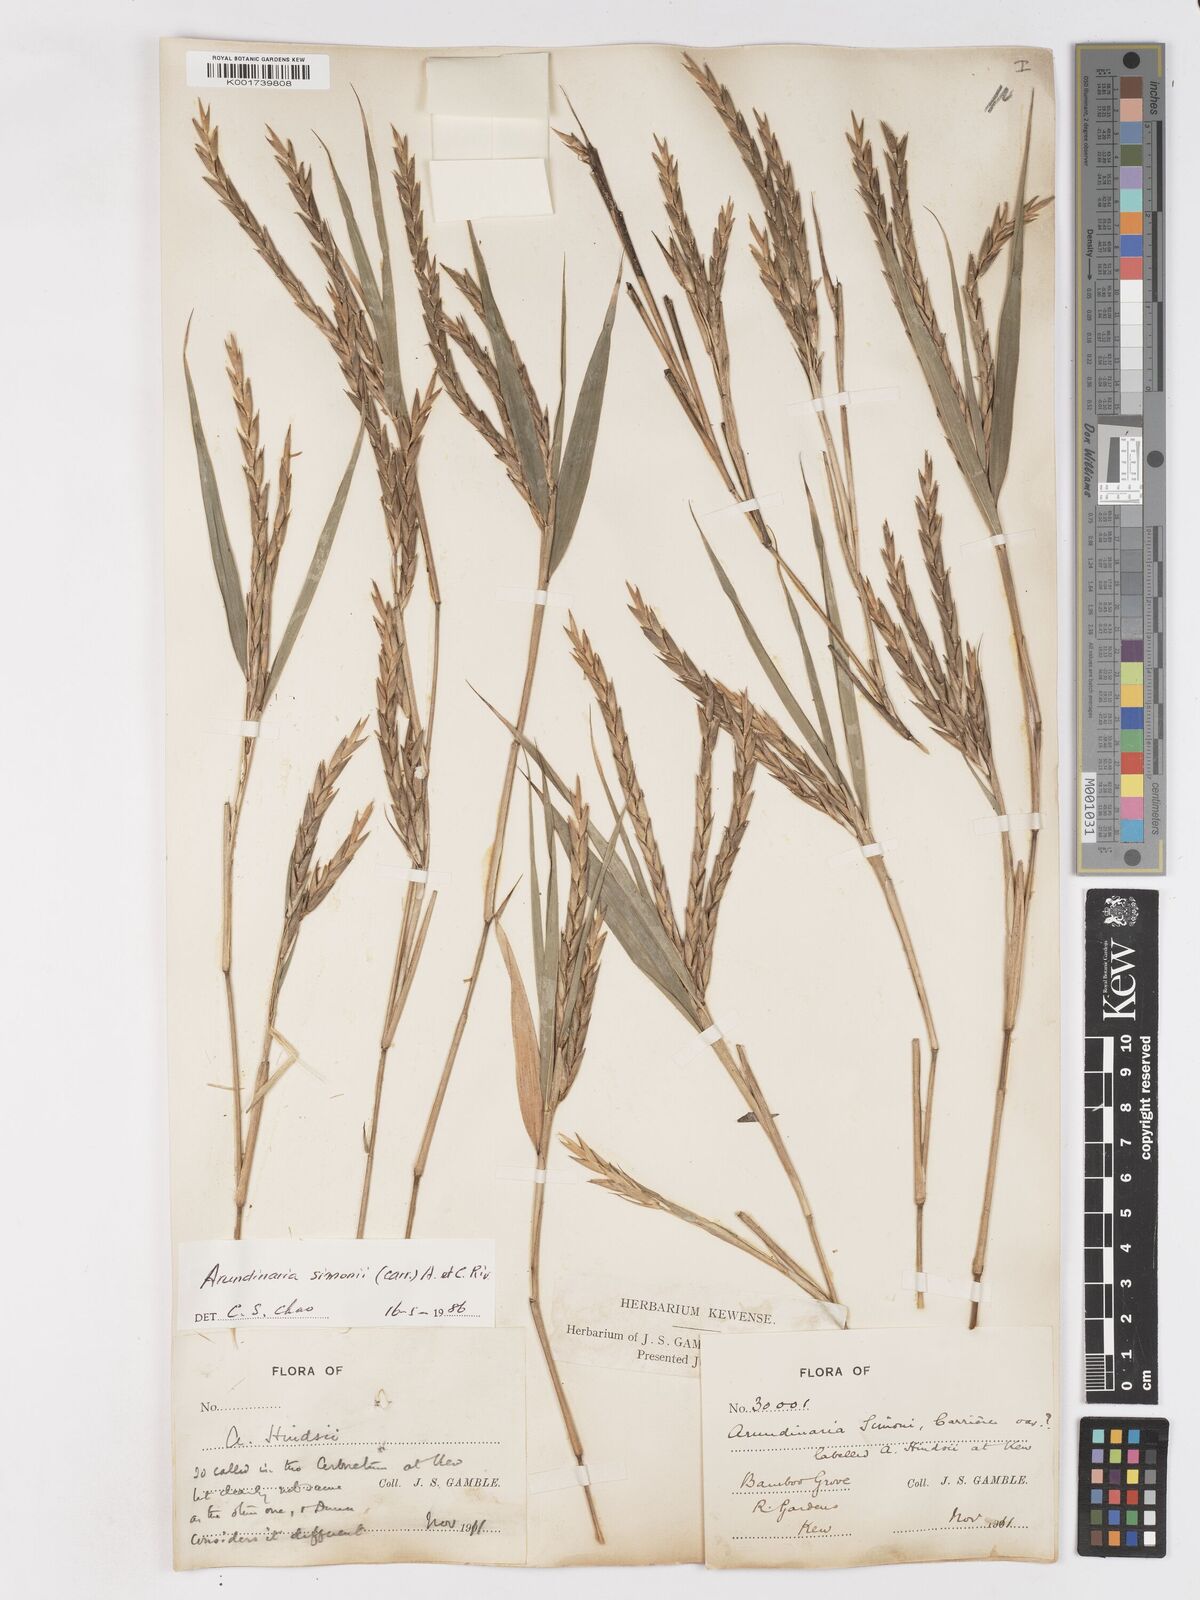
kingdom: Plantae
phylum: Tracheophyta
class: Liliopsida
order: Poales
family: Poaceae
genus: Pleioblastus
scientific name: Pleioblastus simonii
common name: Simon bamboo
